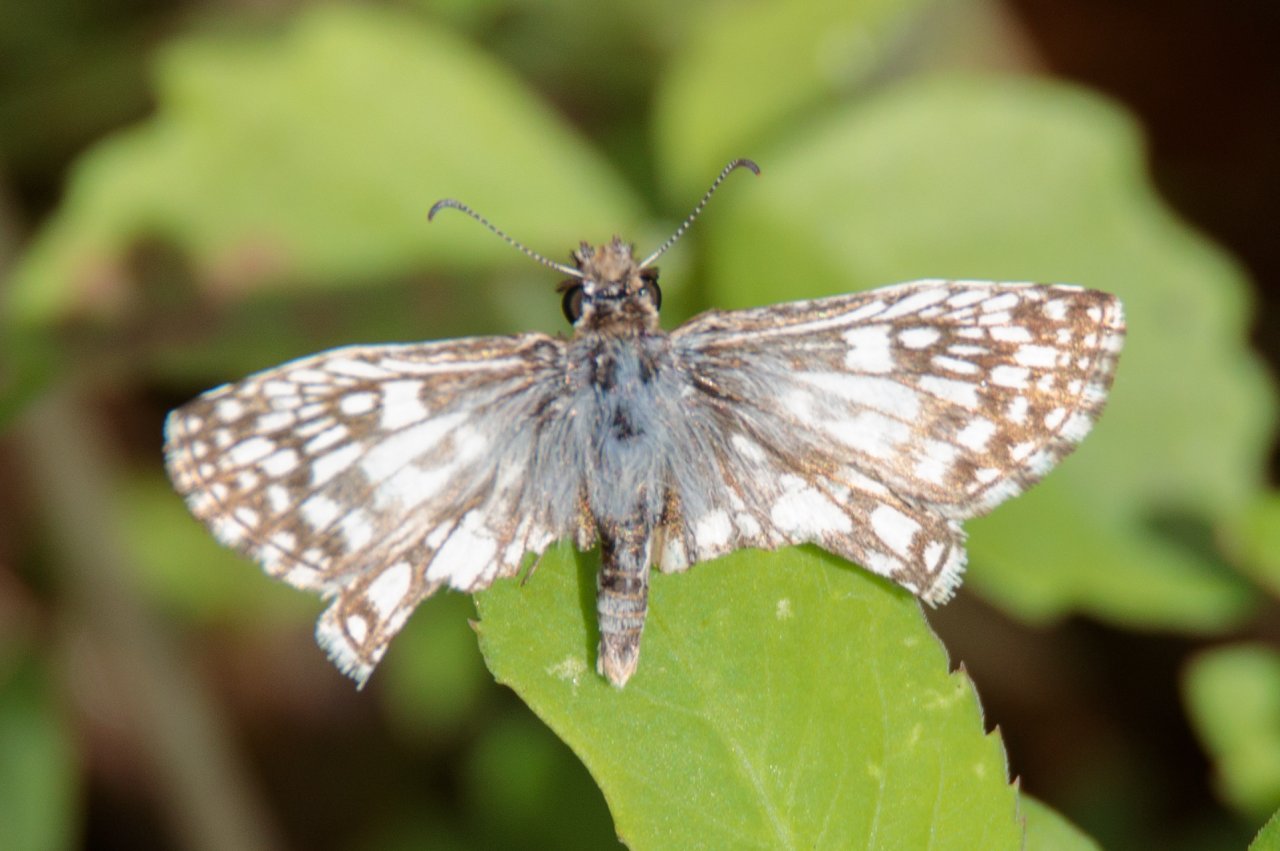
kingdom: Animalia
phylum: Arthropoda
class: Insecta
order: Lepidoptera
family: Hesperiidae
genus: Pyrgus
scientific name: Pyrgus oileus
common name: Tropical Checkered-Skipper
